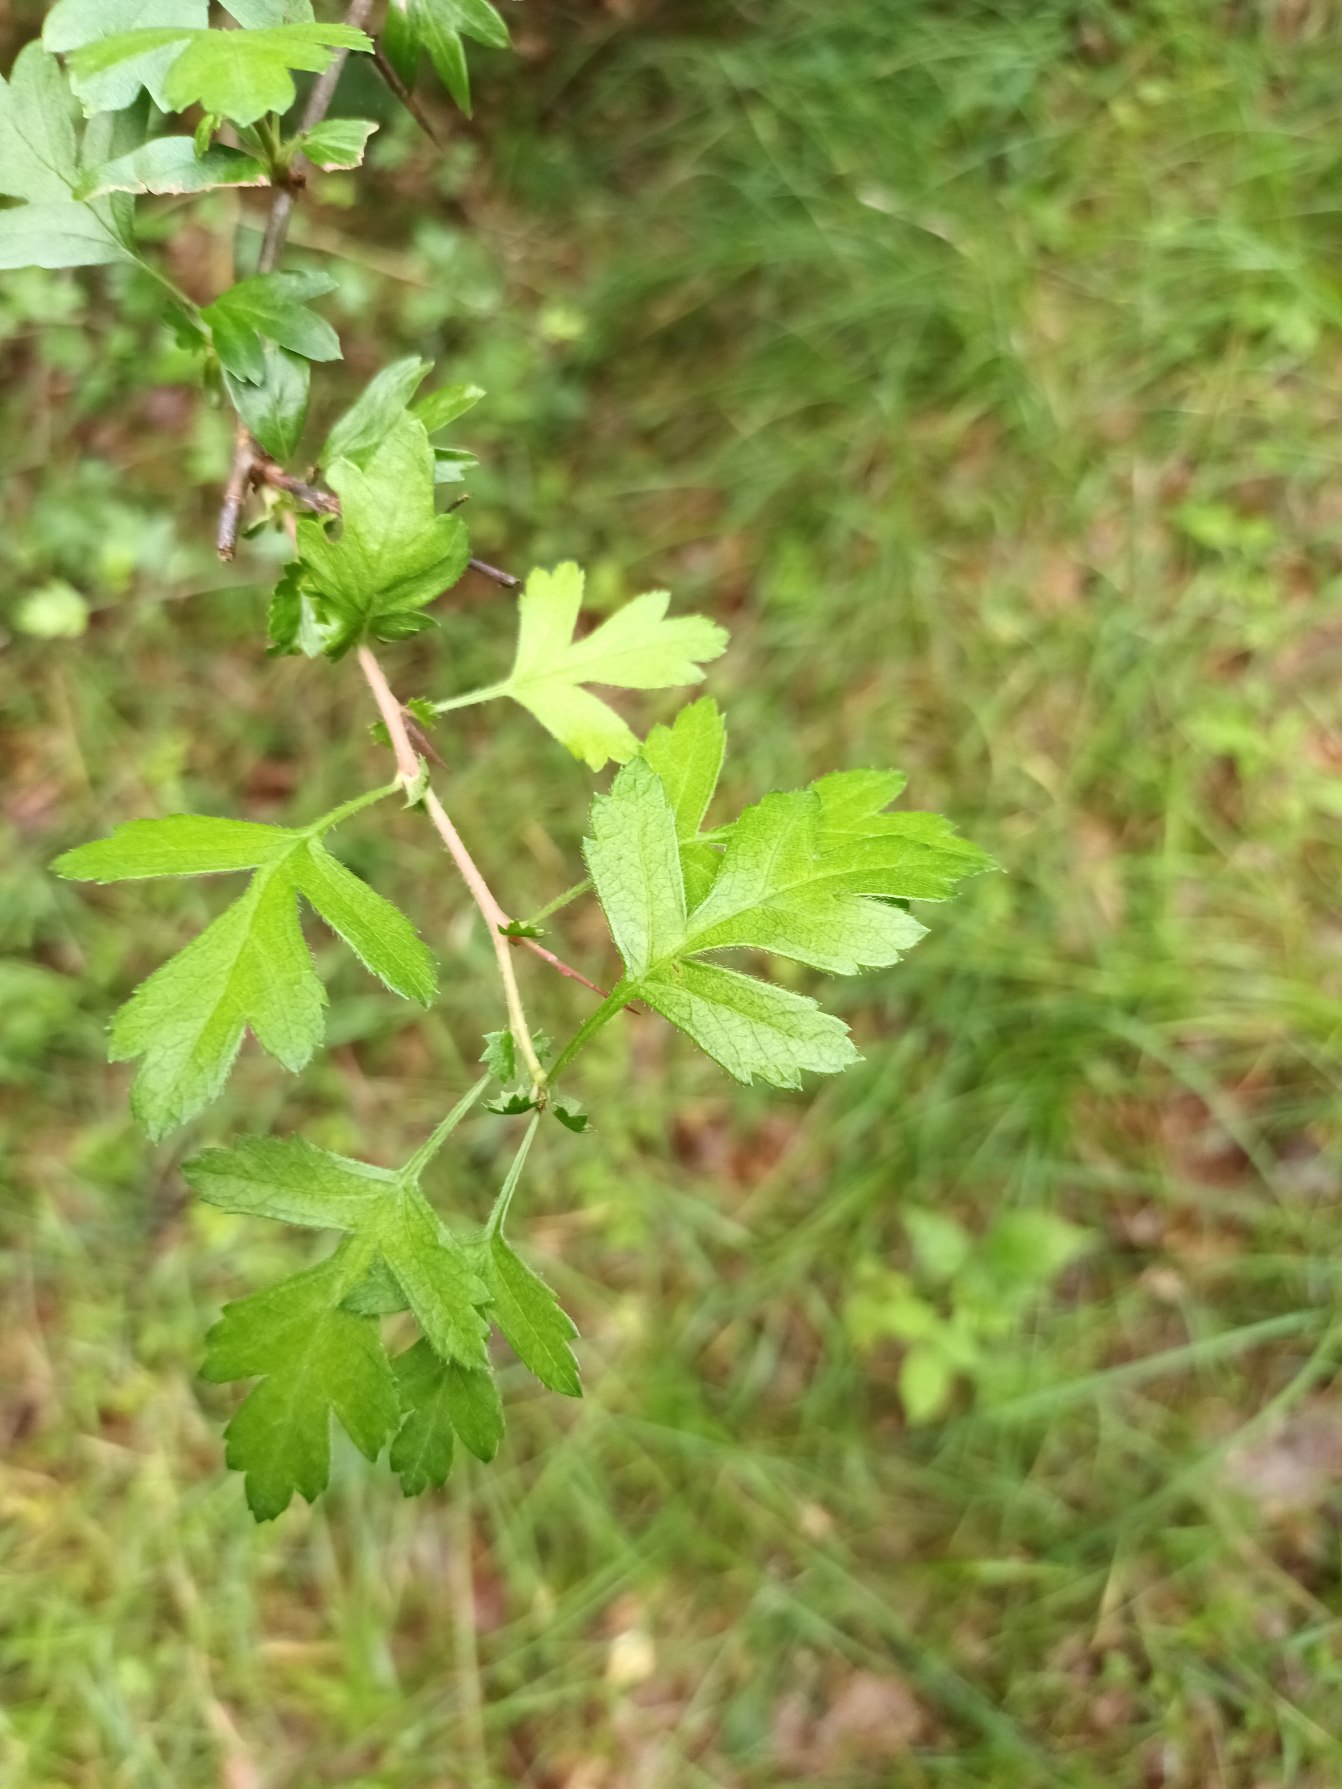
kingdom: Plantae
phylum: Tracheophyta
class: Magnoliopsida
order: Rosales
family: Rosaceae
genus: Crataegus
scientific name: Crataegus monogyna
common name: Engriflet hvidtjørn
